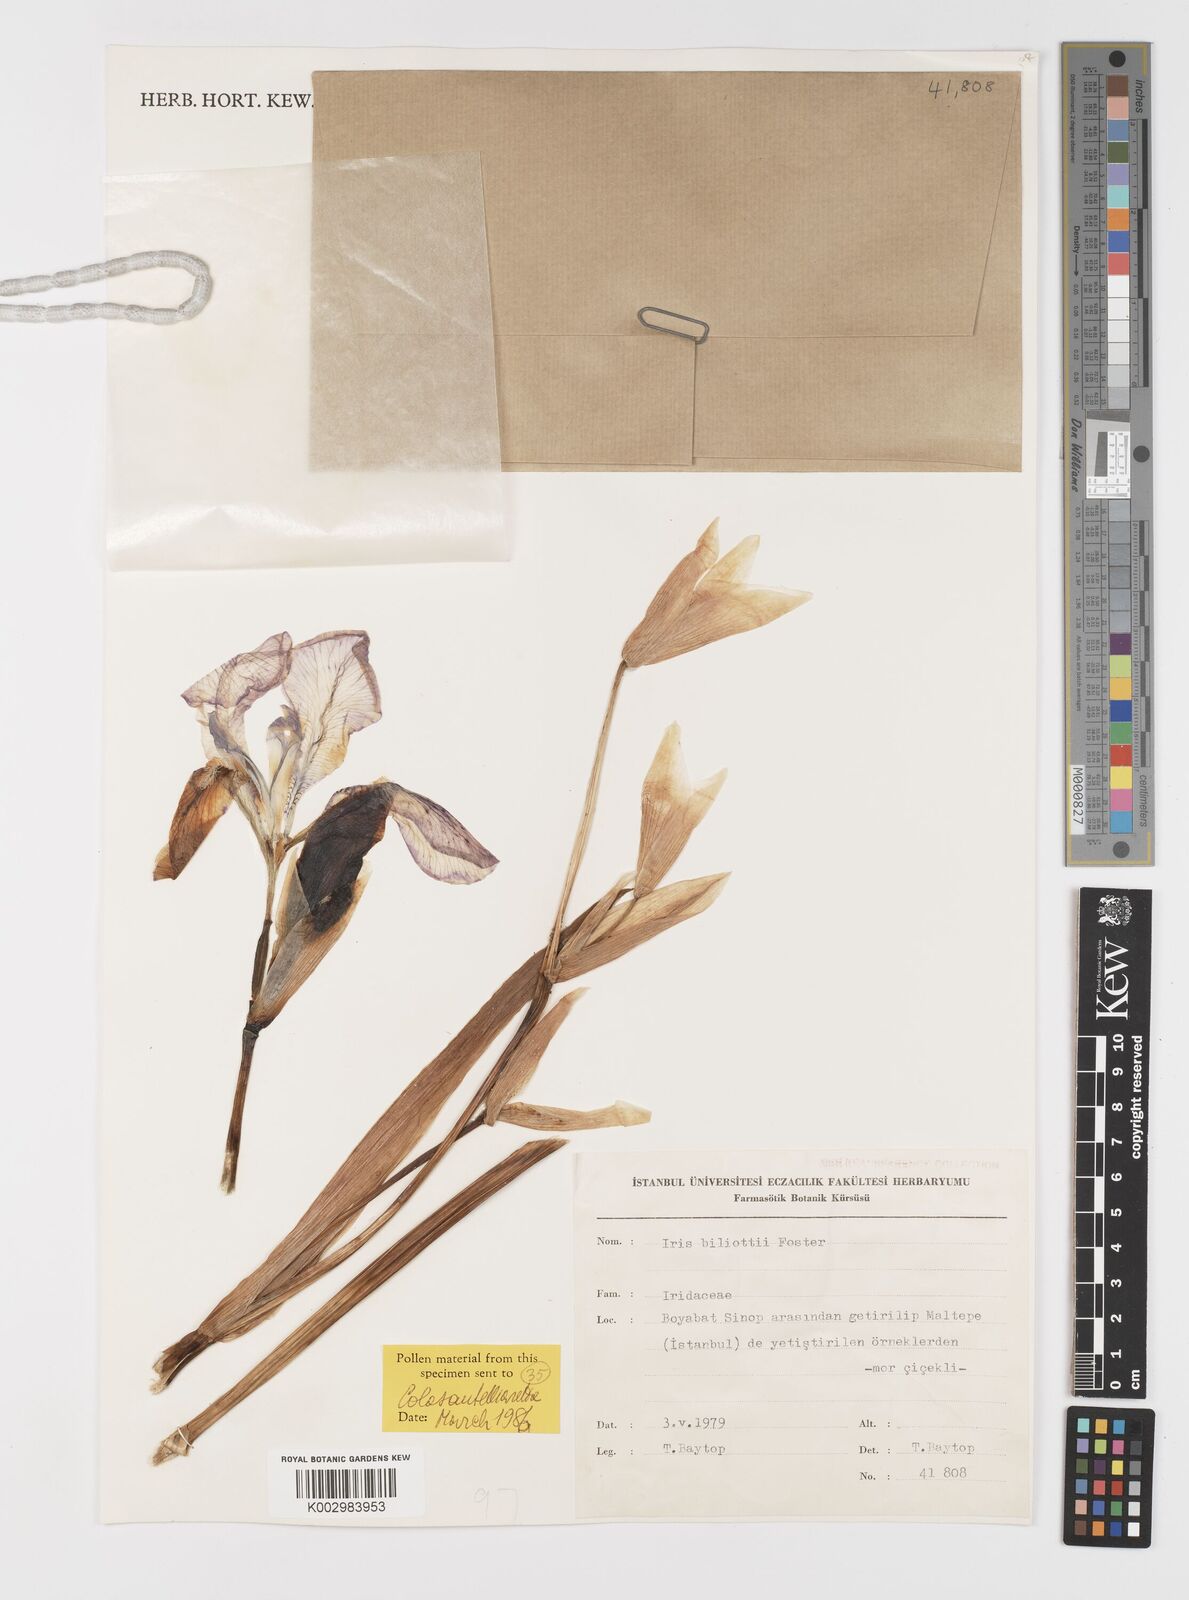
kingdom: Plantae
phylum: Tracheophyta
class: Liliopsida
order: Asparagales
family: Iridaceae
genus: Iris
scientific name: Iris germanica
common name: German iris
